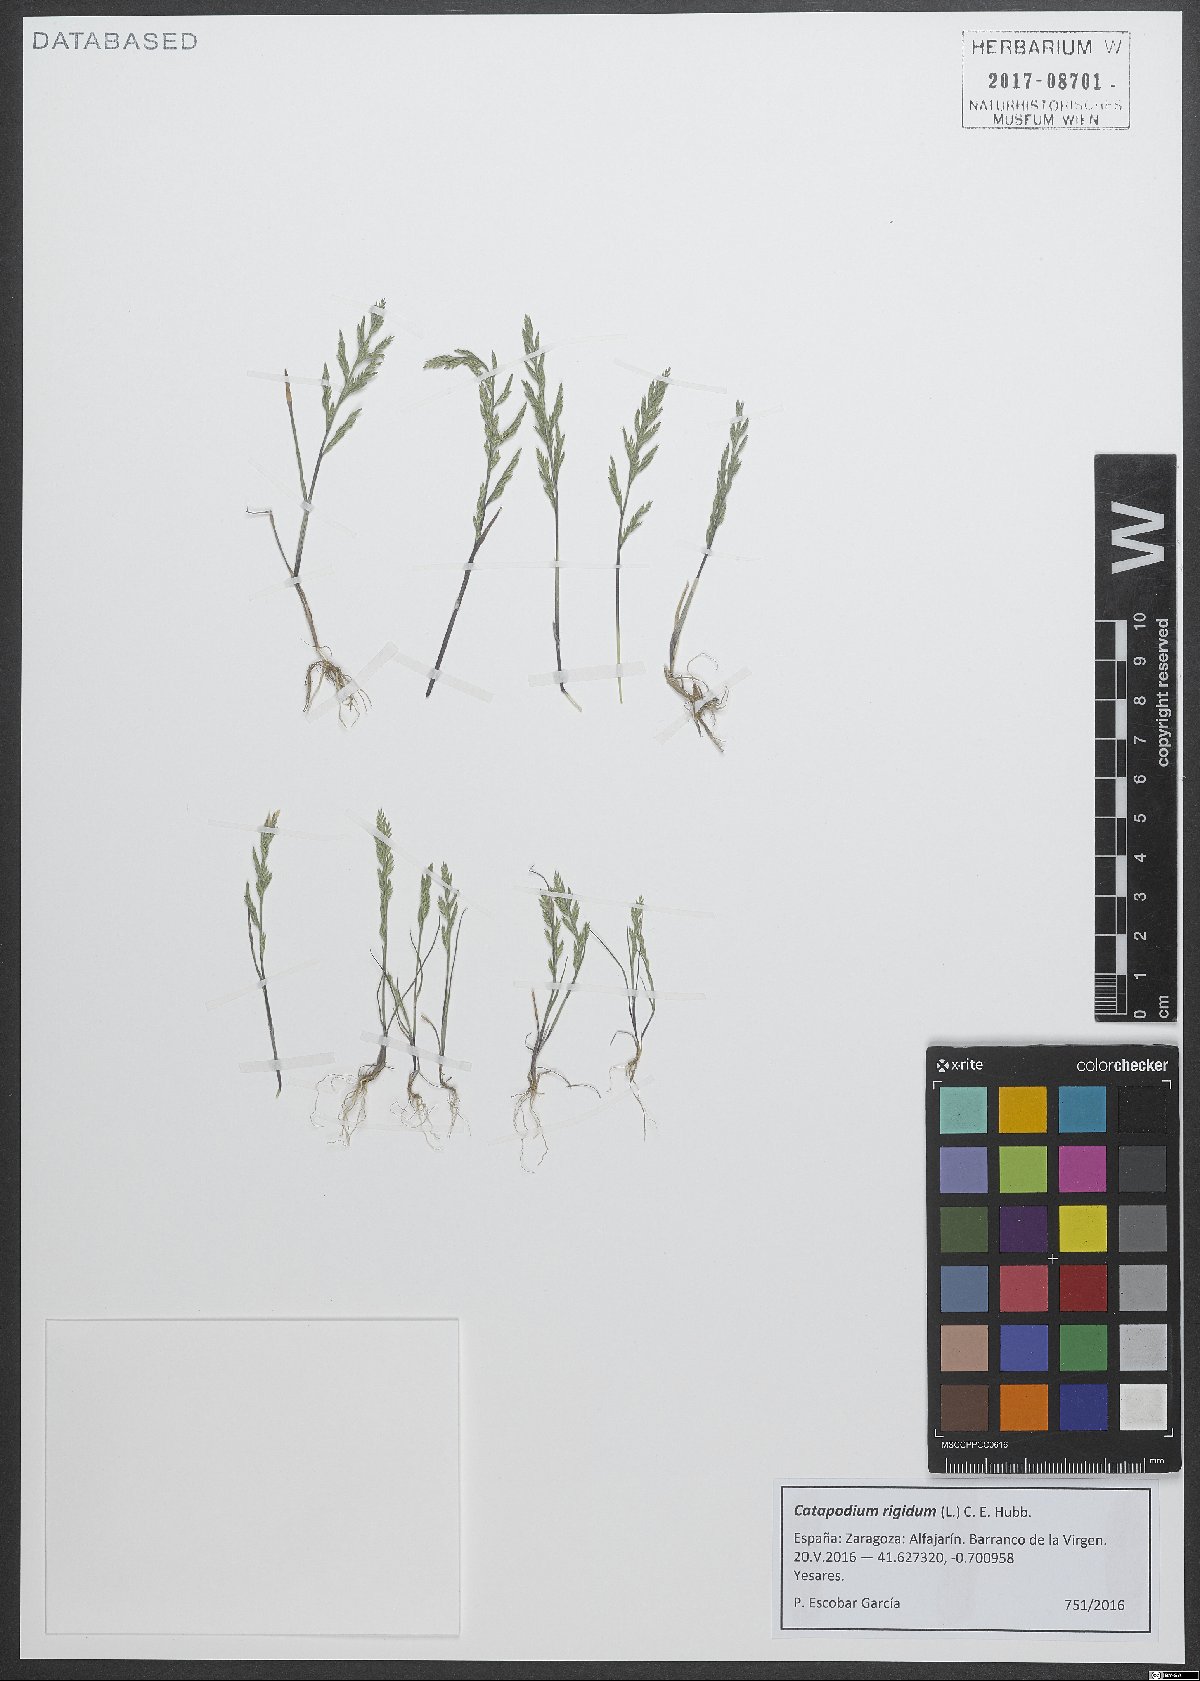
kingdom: Plantae
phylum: Tracheophyta
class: Liliopsida
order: Poales
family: Poaceae
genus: Catapodium
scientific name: Catapodium rigidum
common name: Fern-grass
